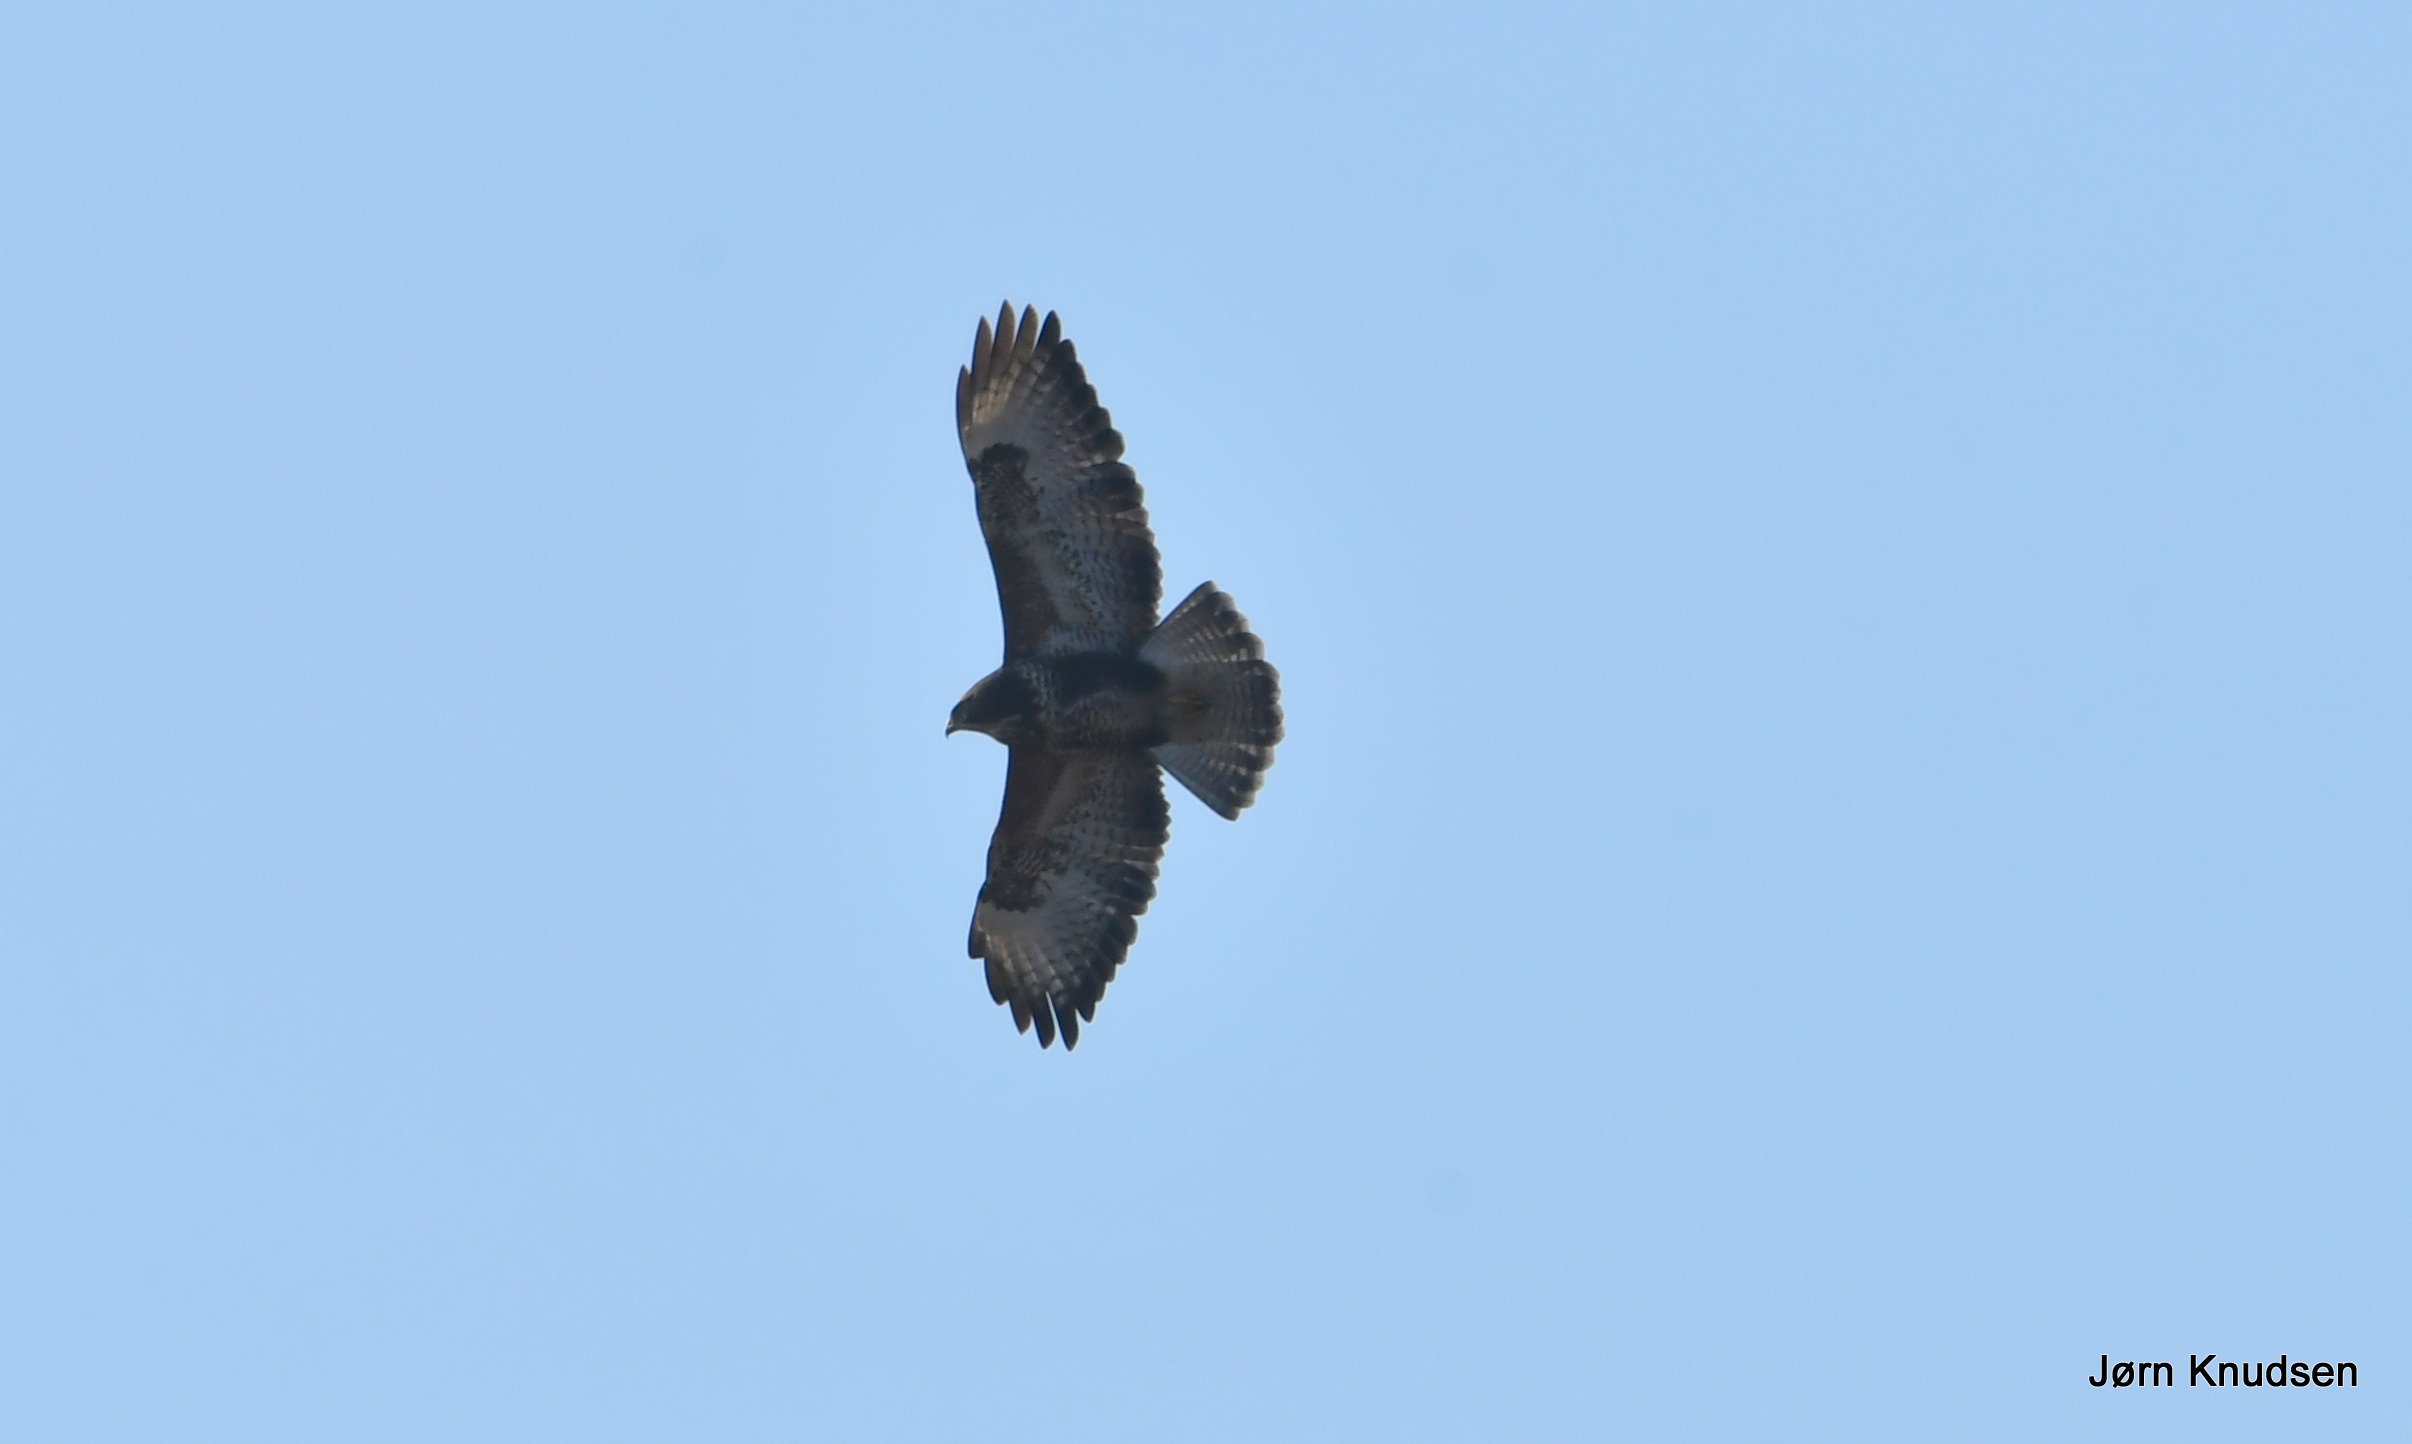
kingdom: Animalia
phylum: Chordata
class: Aves
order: Accipitriformes
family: Accipitridae
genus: Buteo
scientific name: Buteo buteo
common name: Musvåge
